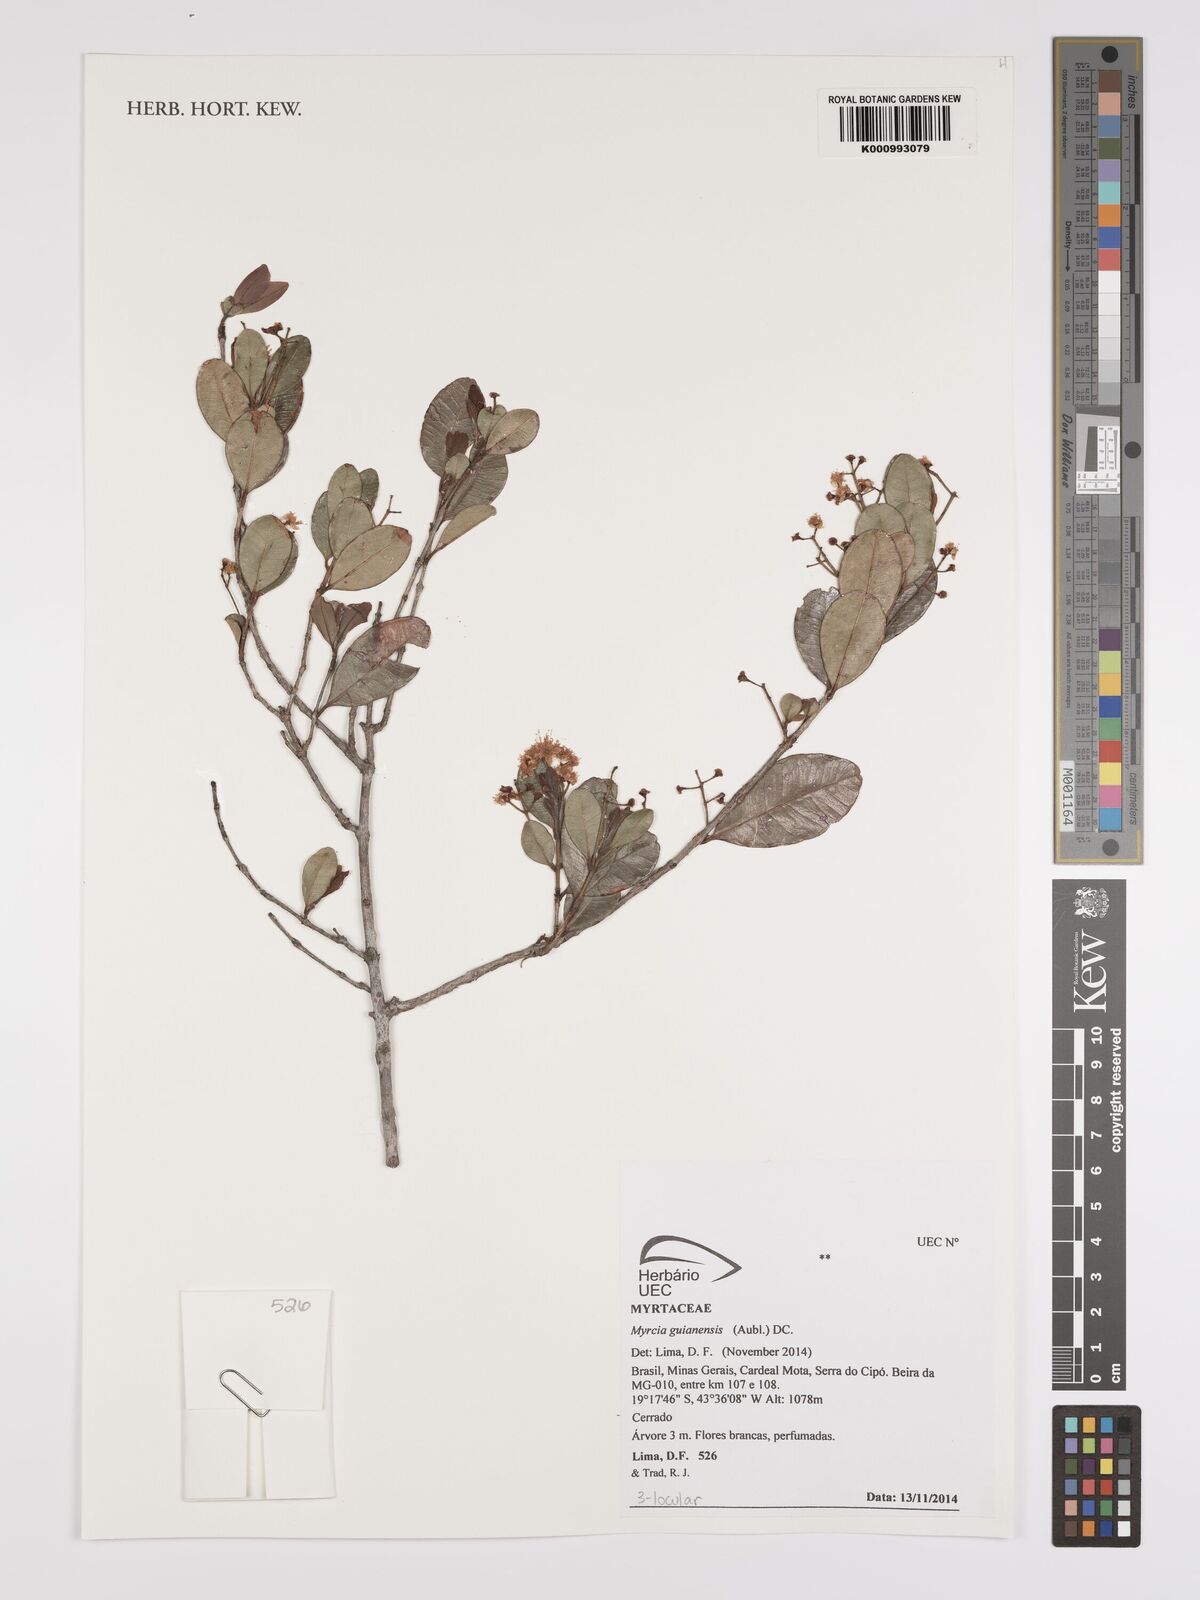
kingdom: Plantae
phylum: Tracheophyta
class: Magnoliopsida
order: Myrtales
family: Myrtaceae
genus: Myrcia
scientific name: Myrcia guianensis
